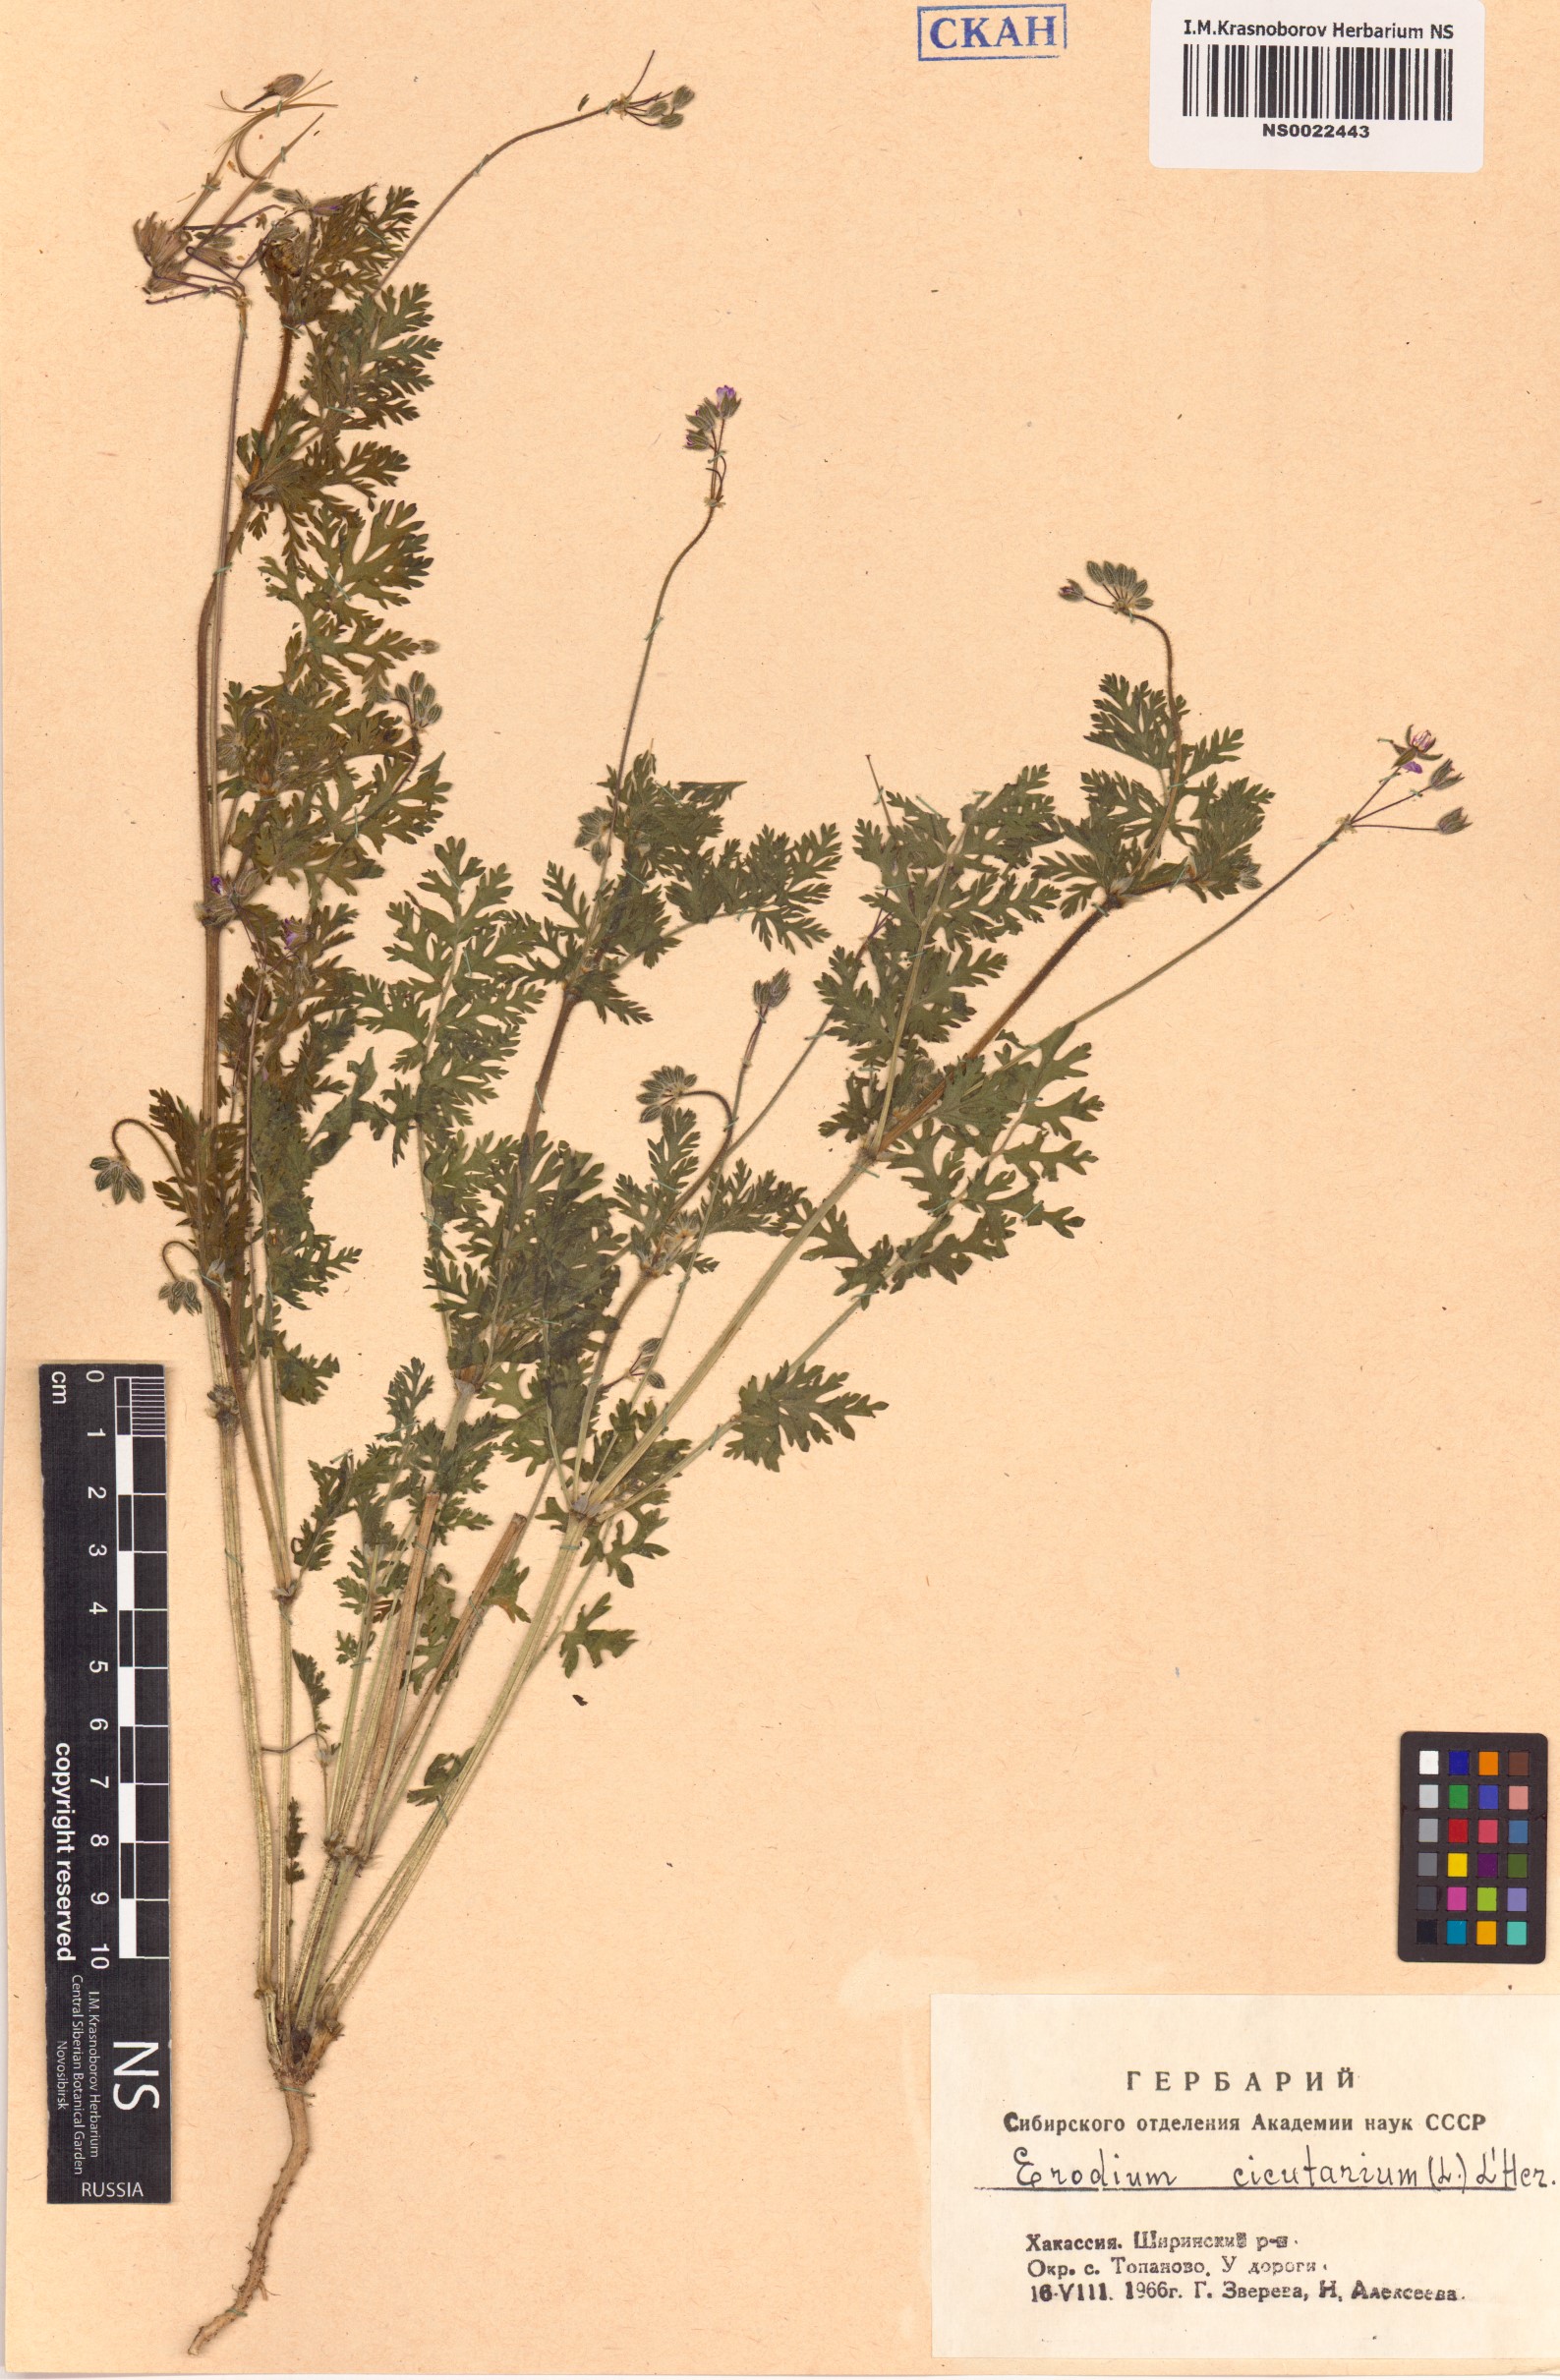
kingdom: Plantae
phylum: Tracheophyta
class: Magnoliopsida
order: Geraniales
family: Geraniaceae
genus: Erodium
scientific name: Erodium cicutarium
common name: Common stork's-bill
